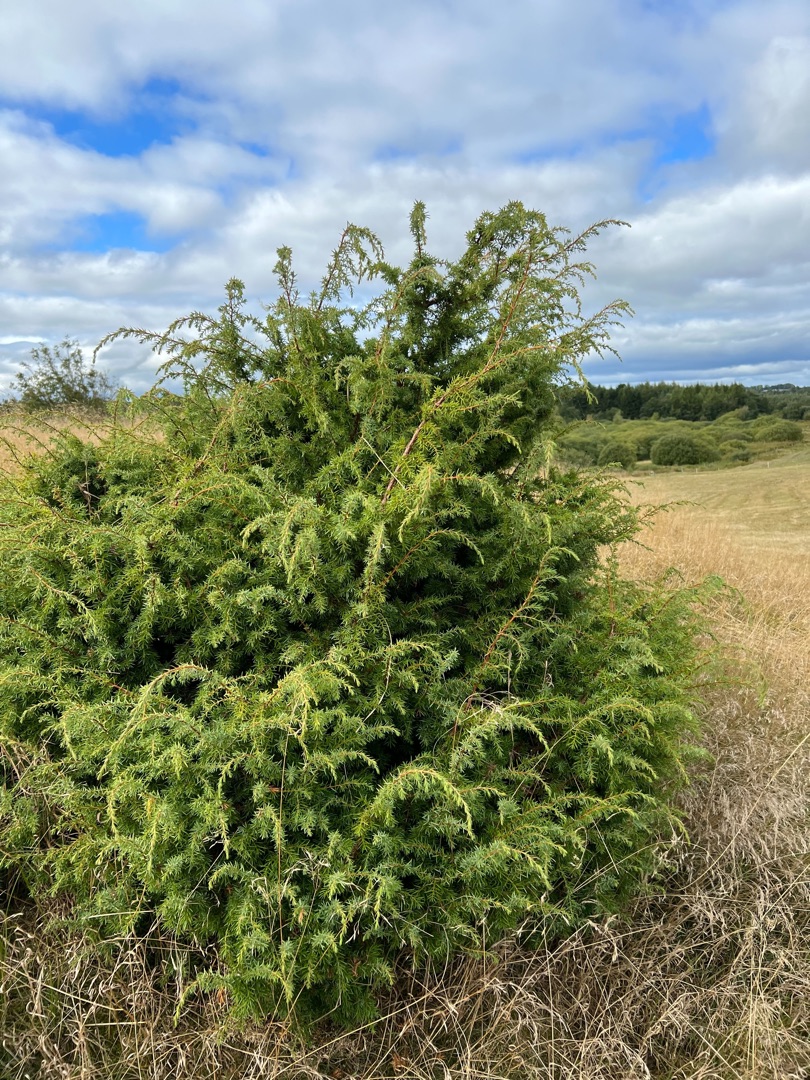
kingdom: Plantae
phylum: Tracheophyta
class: Pinopsida
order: Pinales
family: Cupressaceae
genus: Juniperus
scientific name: Juniperus communis
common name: Almindelig ene
